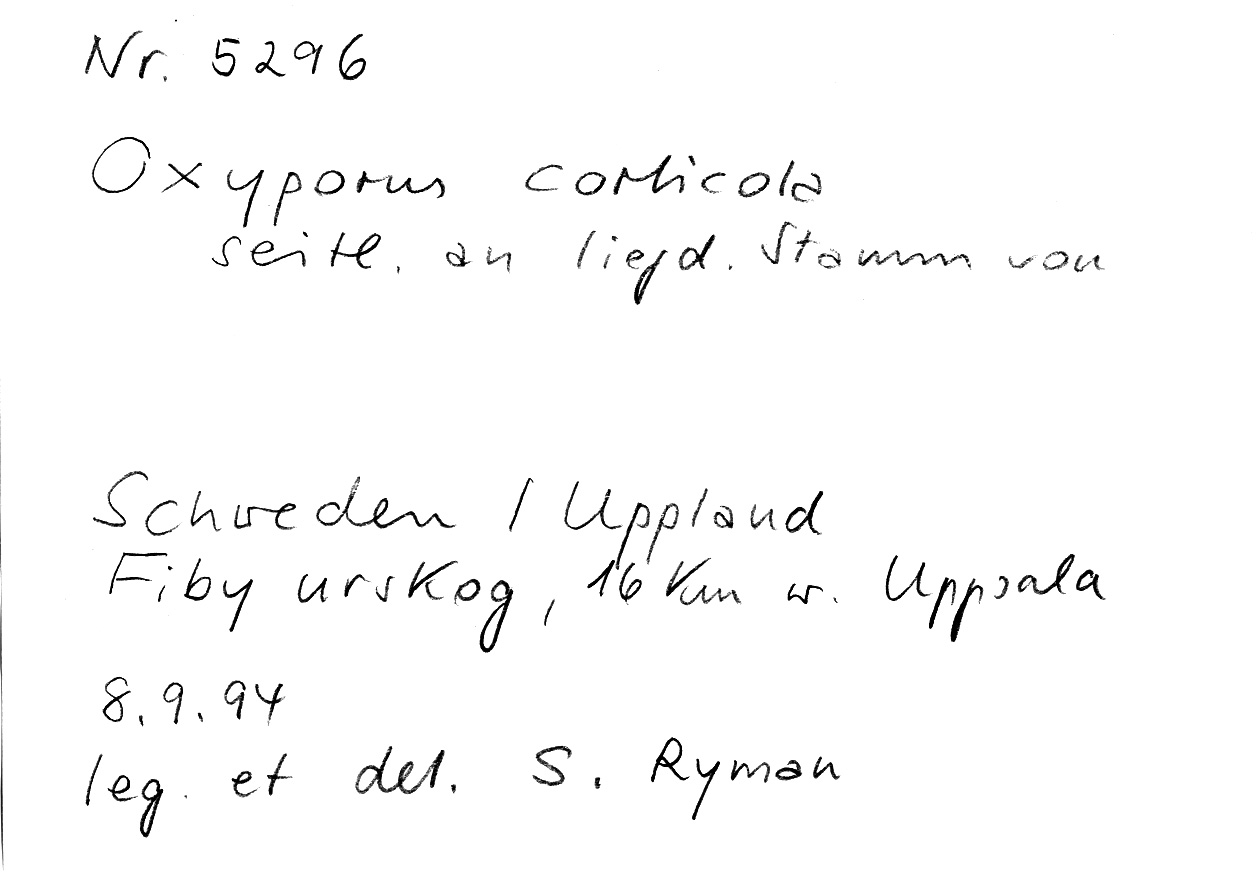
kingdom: Fungi
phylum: Basidiomycota
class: Agaricomycetes
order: Hymenochaetales
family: Oxyporaceae
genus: Oxyporus
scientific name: Oxyporus corticola
